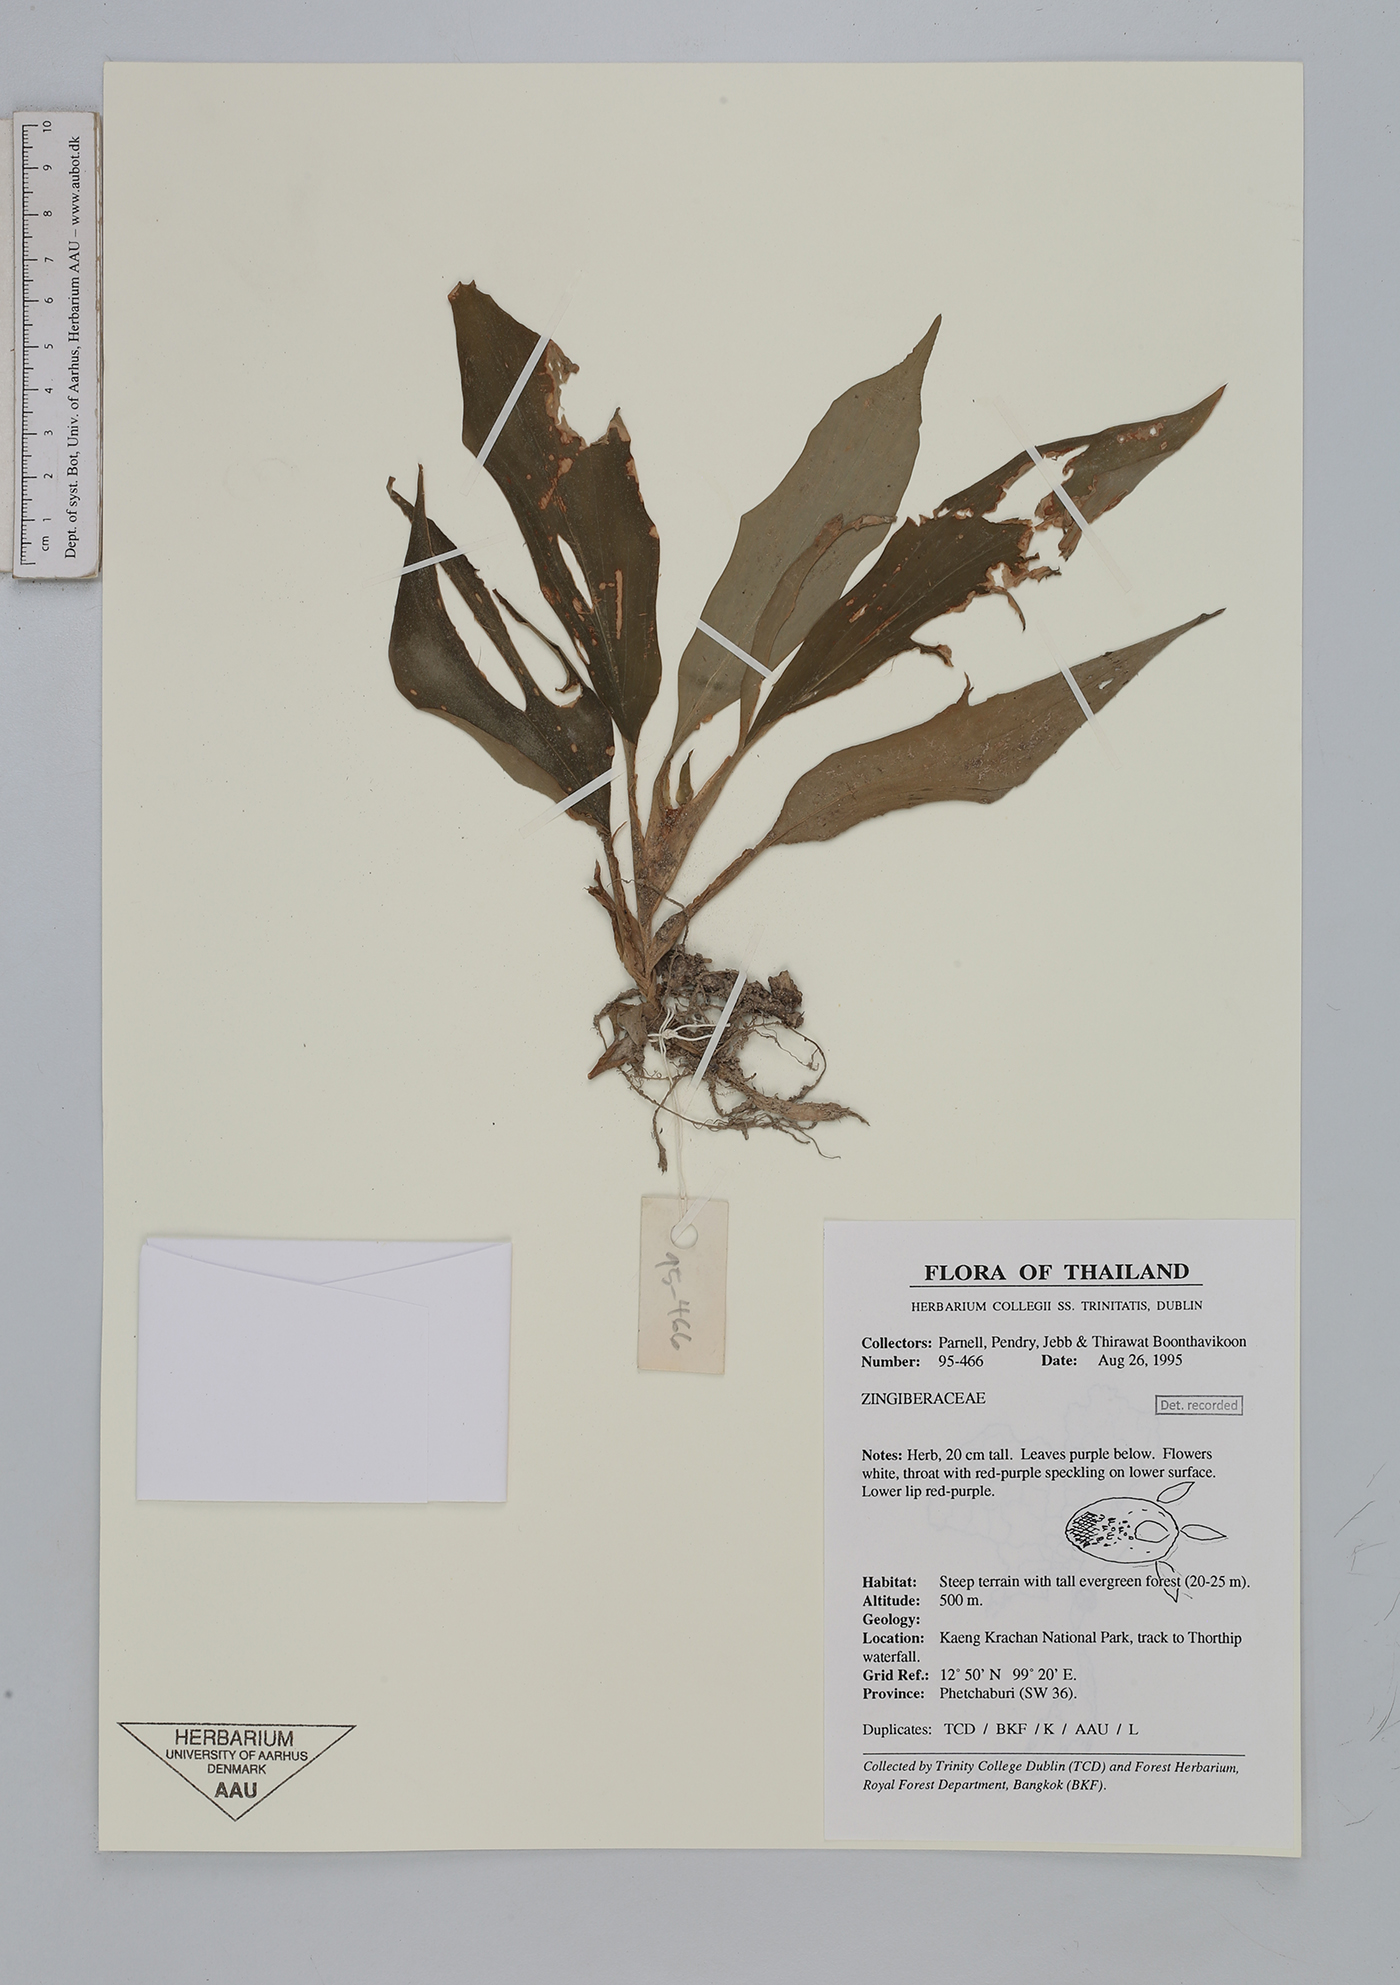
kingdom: Plantae
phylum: Tracheophyta
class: Liliopsida
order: Zingiberales
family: Zingiberaceae
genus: Boesenbergia
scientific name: Boesenbergia
